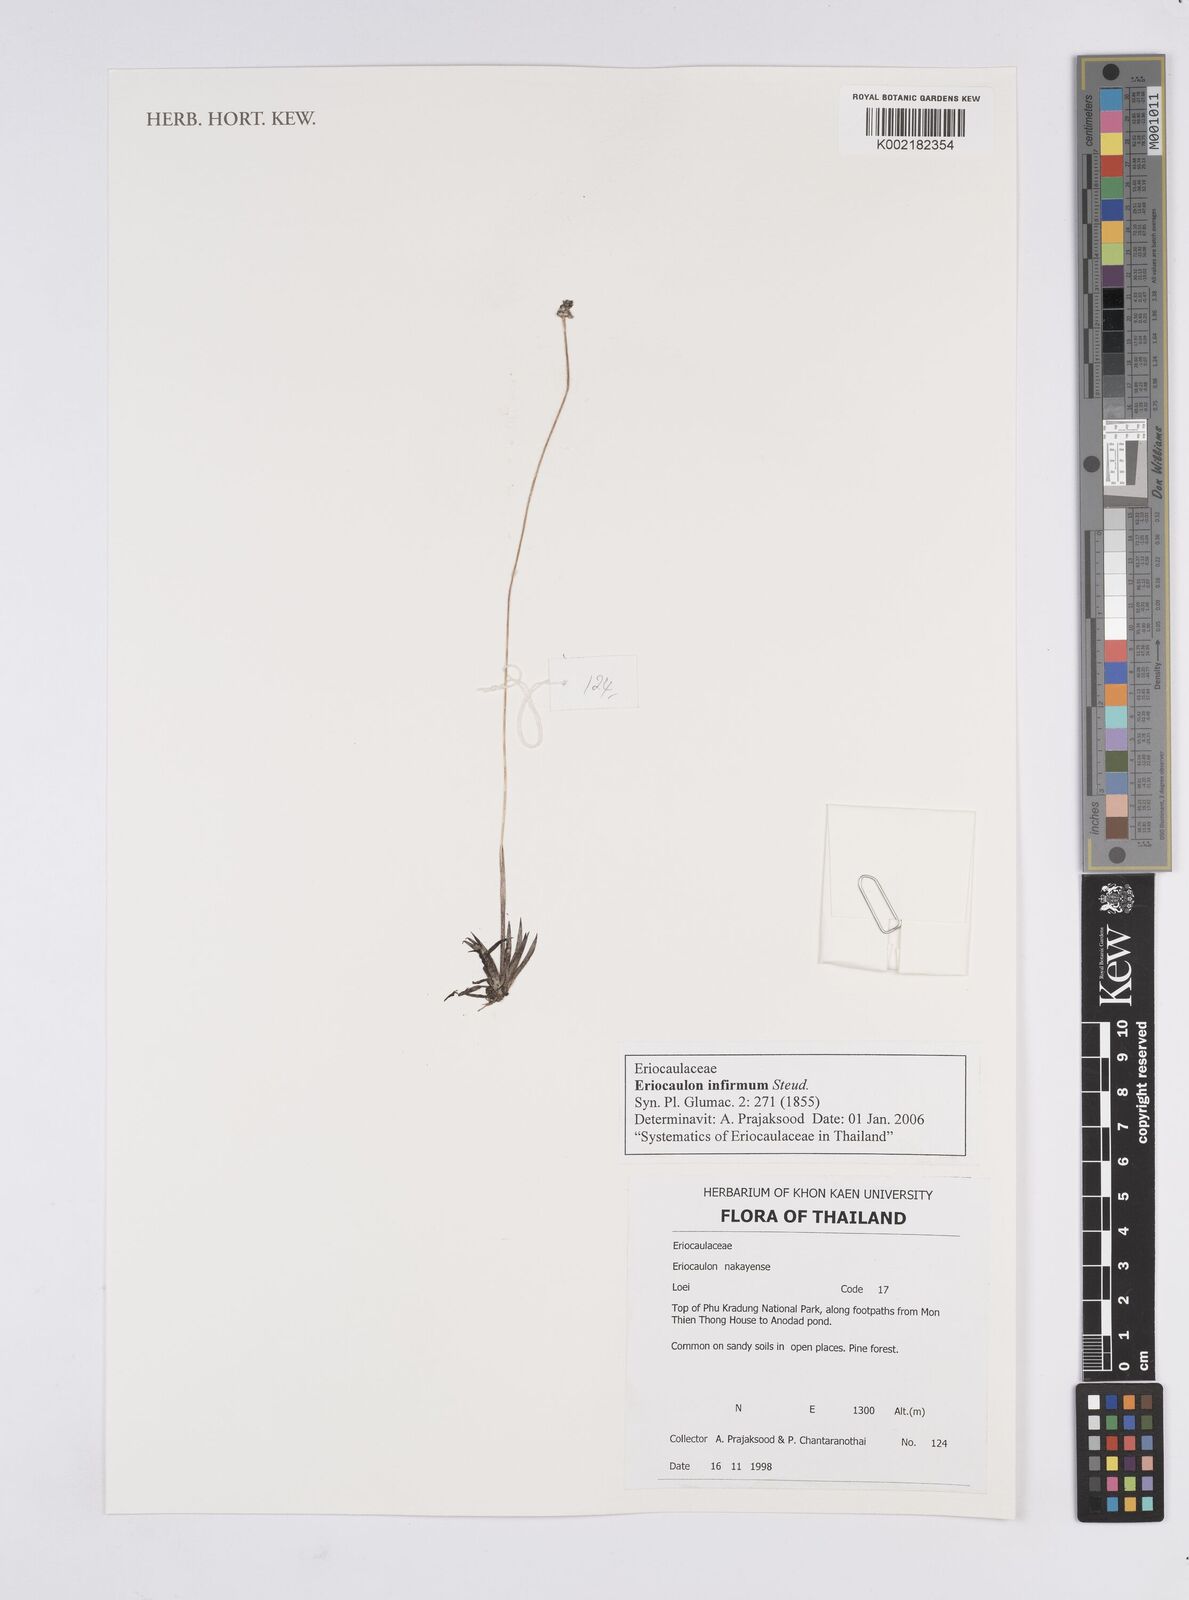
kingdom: Plantae
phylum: Tracheophyta
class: Liliopsida
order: Poales
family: Eriocaulaceae
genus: Eriocaulon
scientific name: Eriocaulon infirmum
